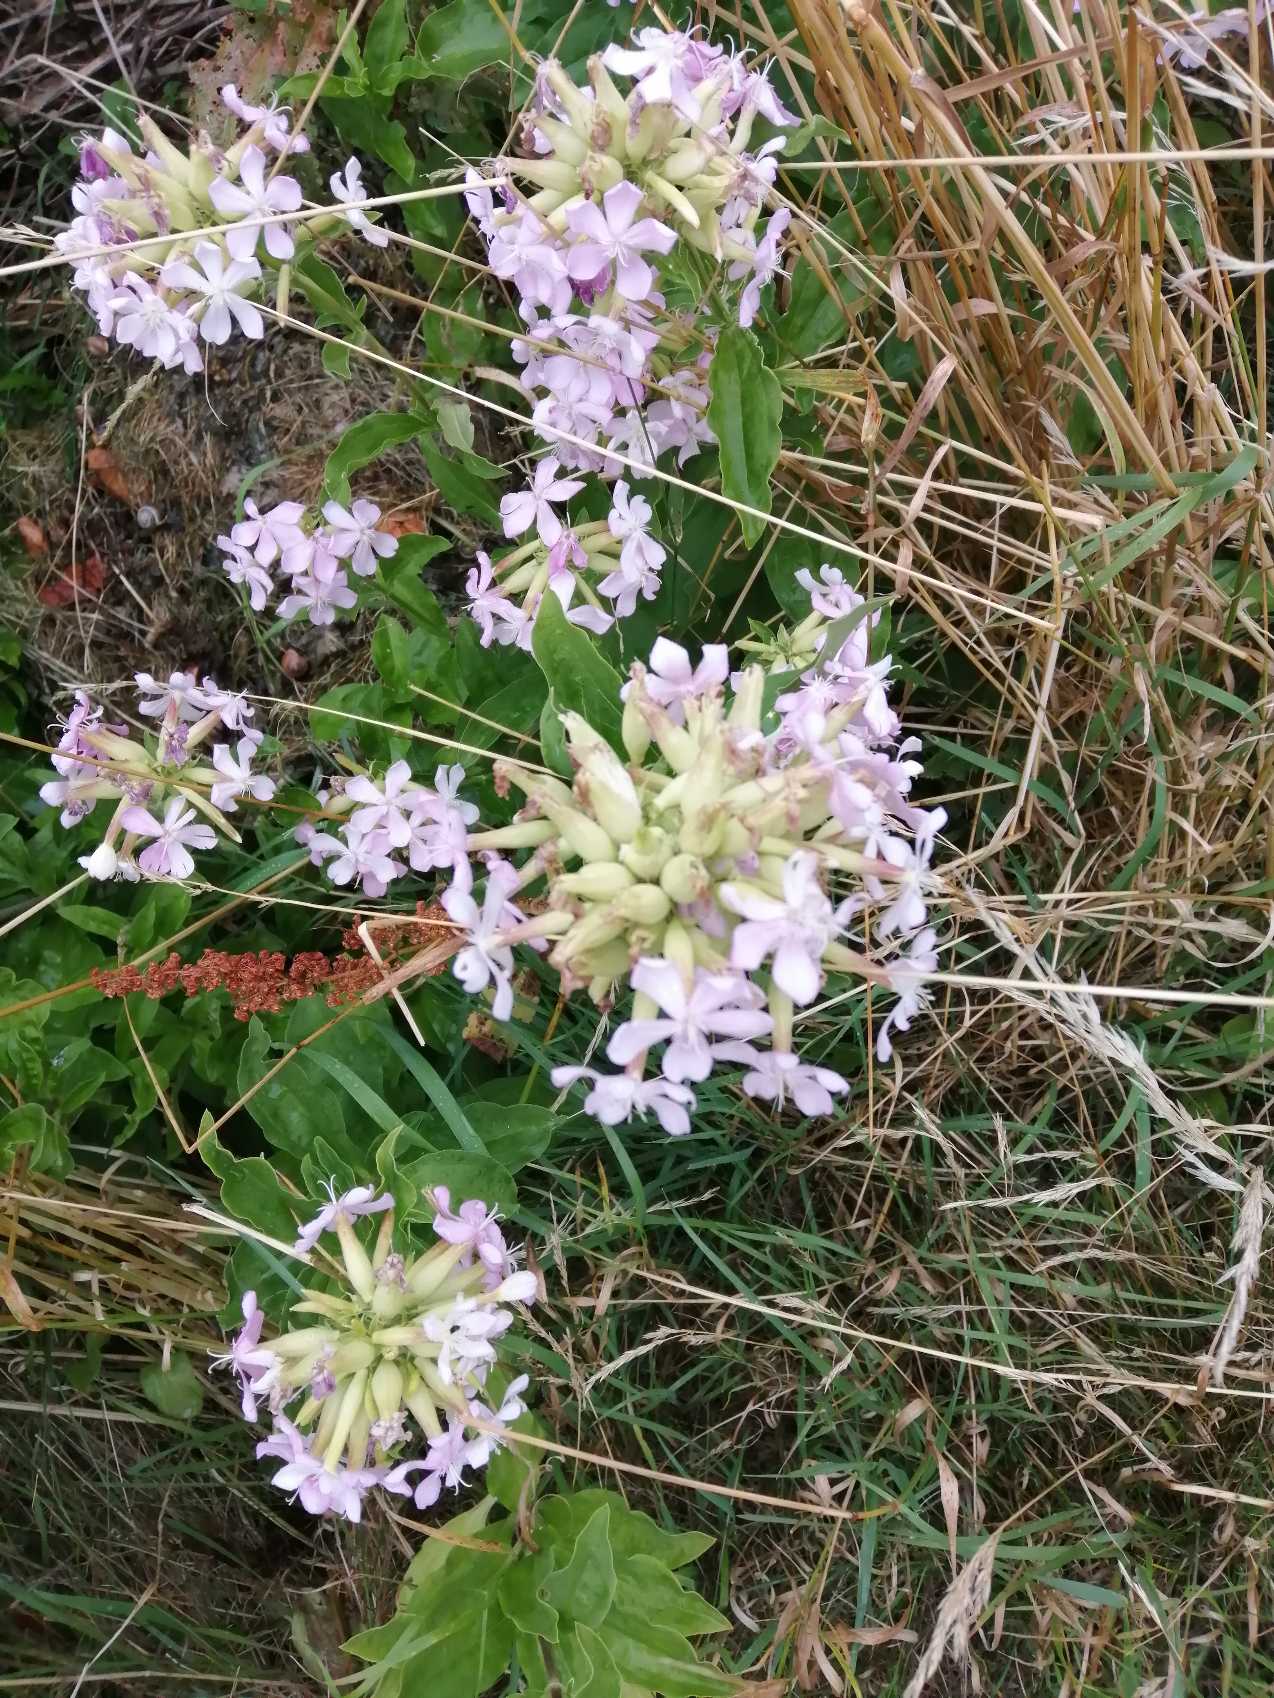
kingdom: Plantae
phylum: Tracheophyta
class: Magnoliopsida
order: Caryophyllales
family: Caryophyllaceae
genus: Saponaria
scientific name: Saponaria officinalis
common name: Sæbeurt
